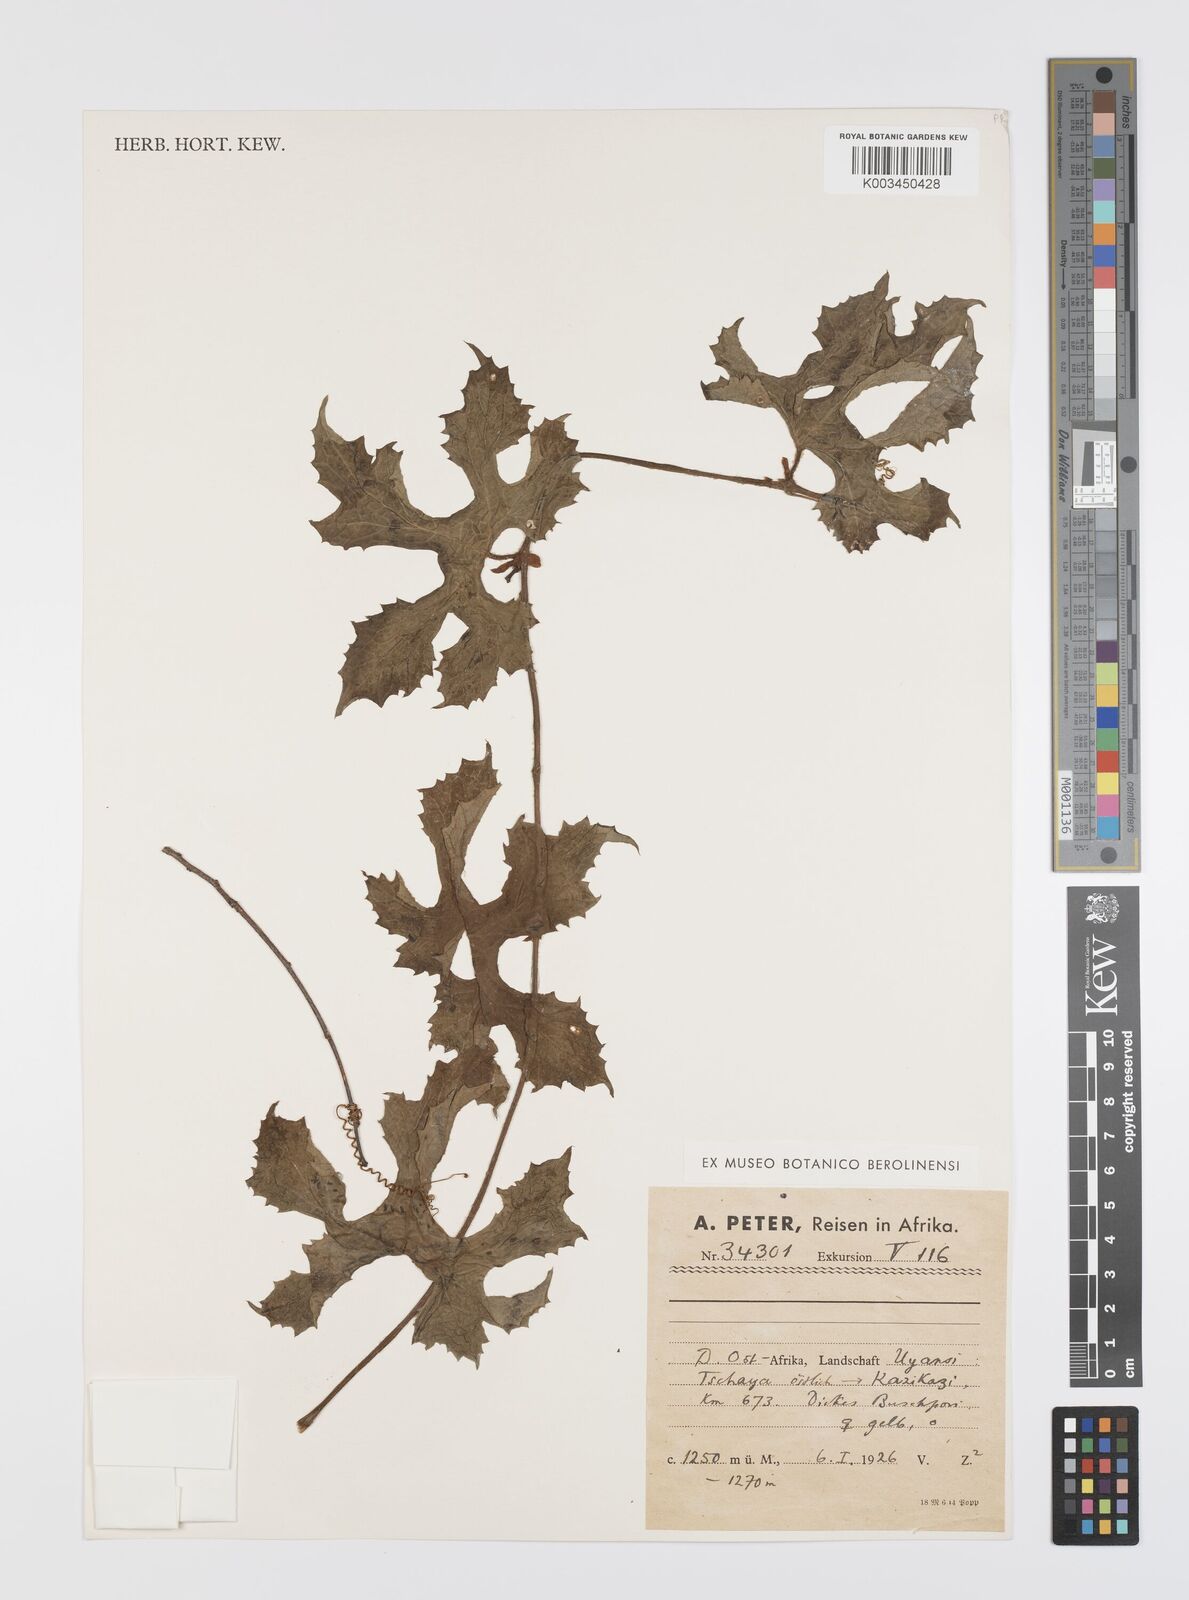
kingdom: Plantae
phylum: Tracheophyta
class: Magnoliopsida
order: Cucurbitales
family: Cucurbitaceae
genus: Peponium
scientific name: Peponium vogelii
